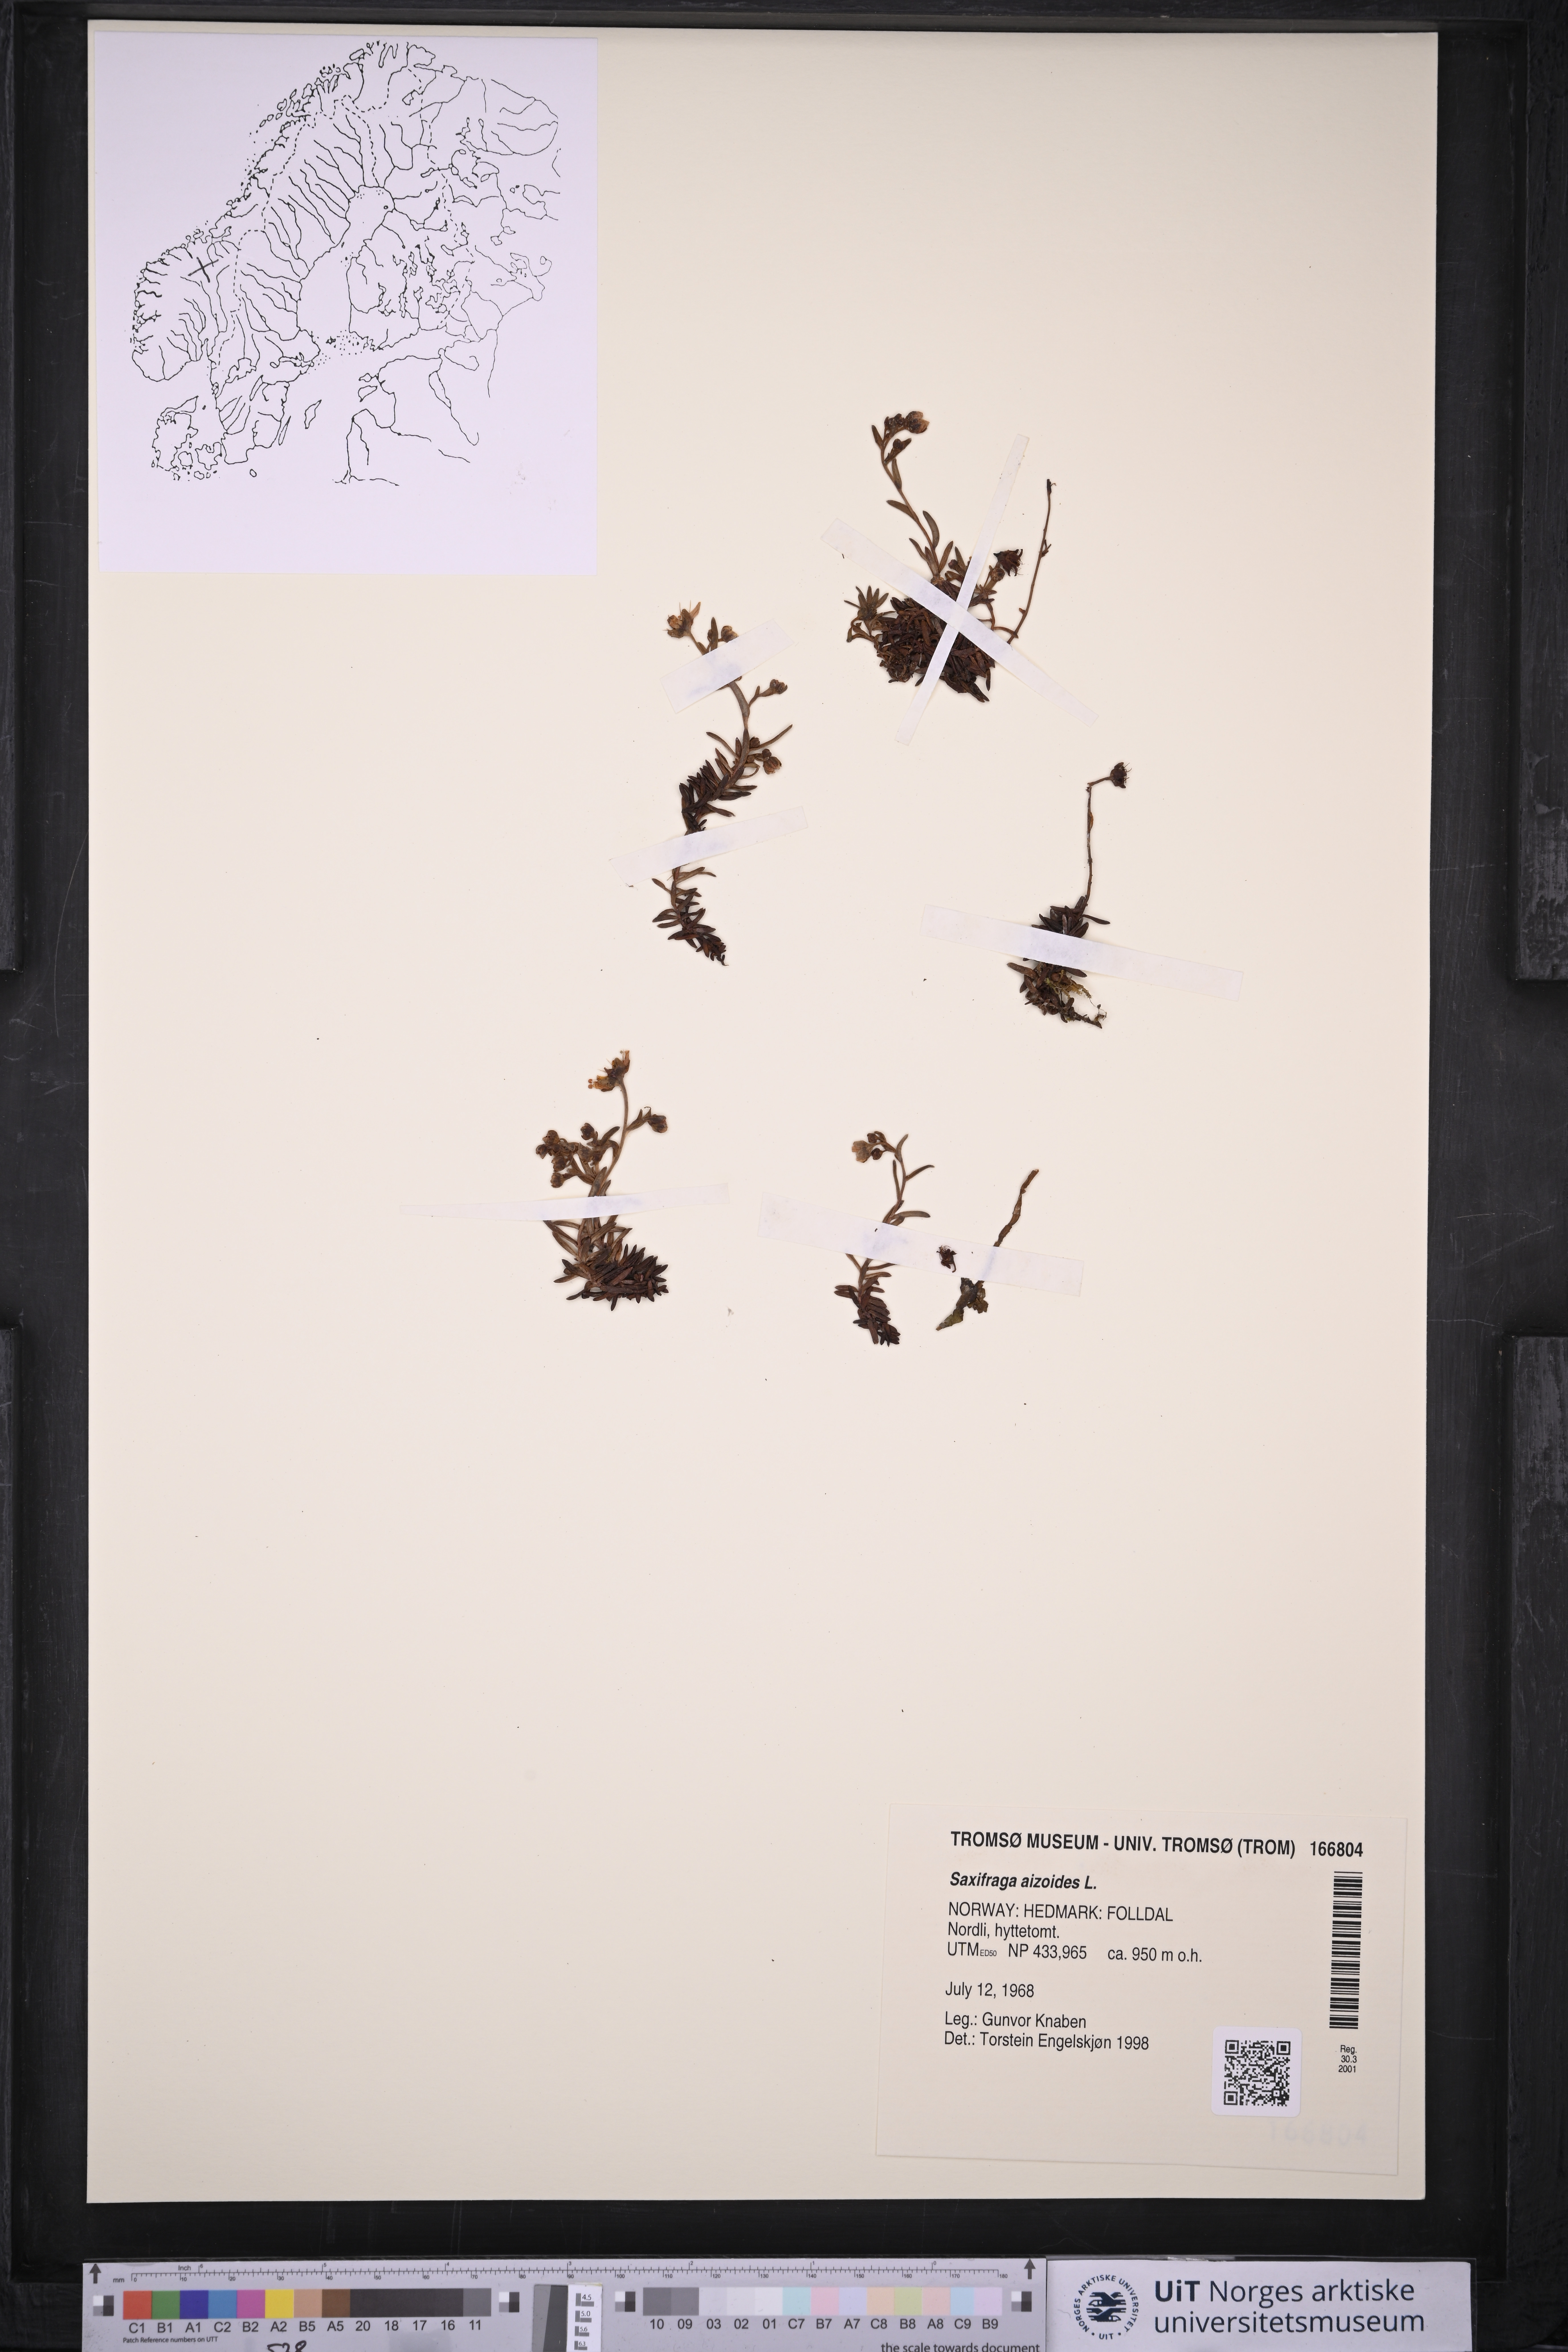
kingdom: Plantae
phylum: Tracheophyta
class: Magnoliopsida
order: Saxifragales
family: Saxifragaceae
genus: Saxifraga
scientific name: Saxifraga aizoides
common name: Yellow mountain saxifrage
